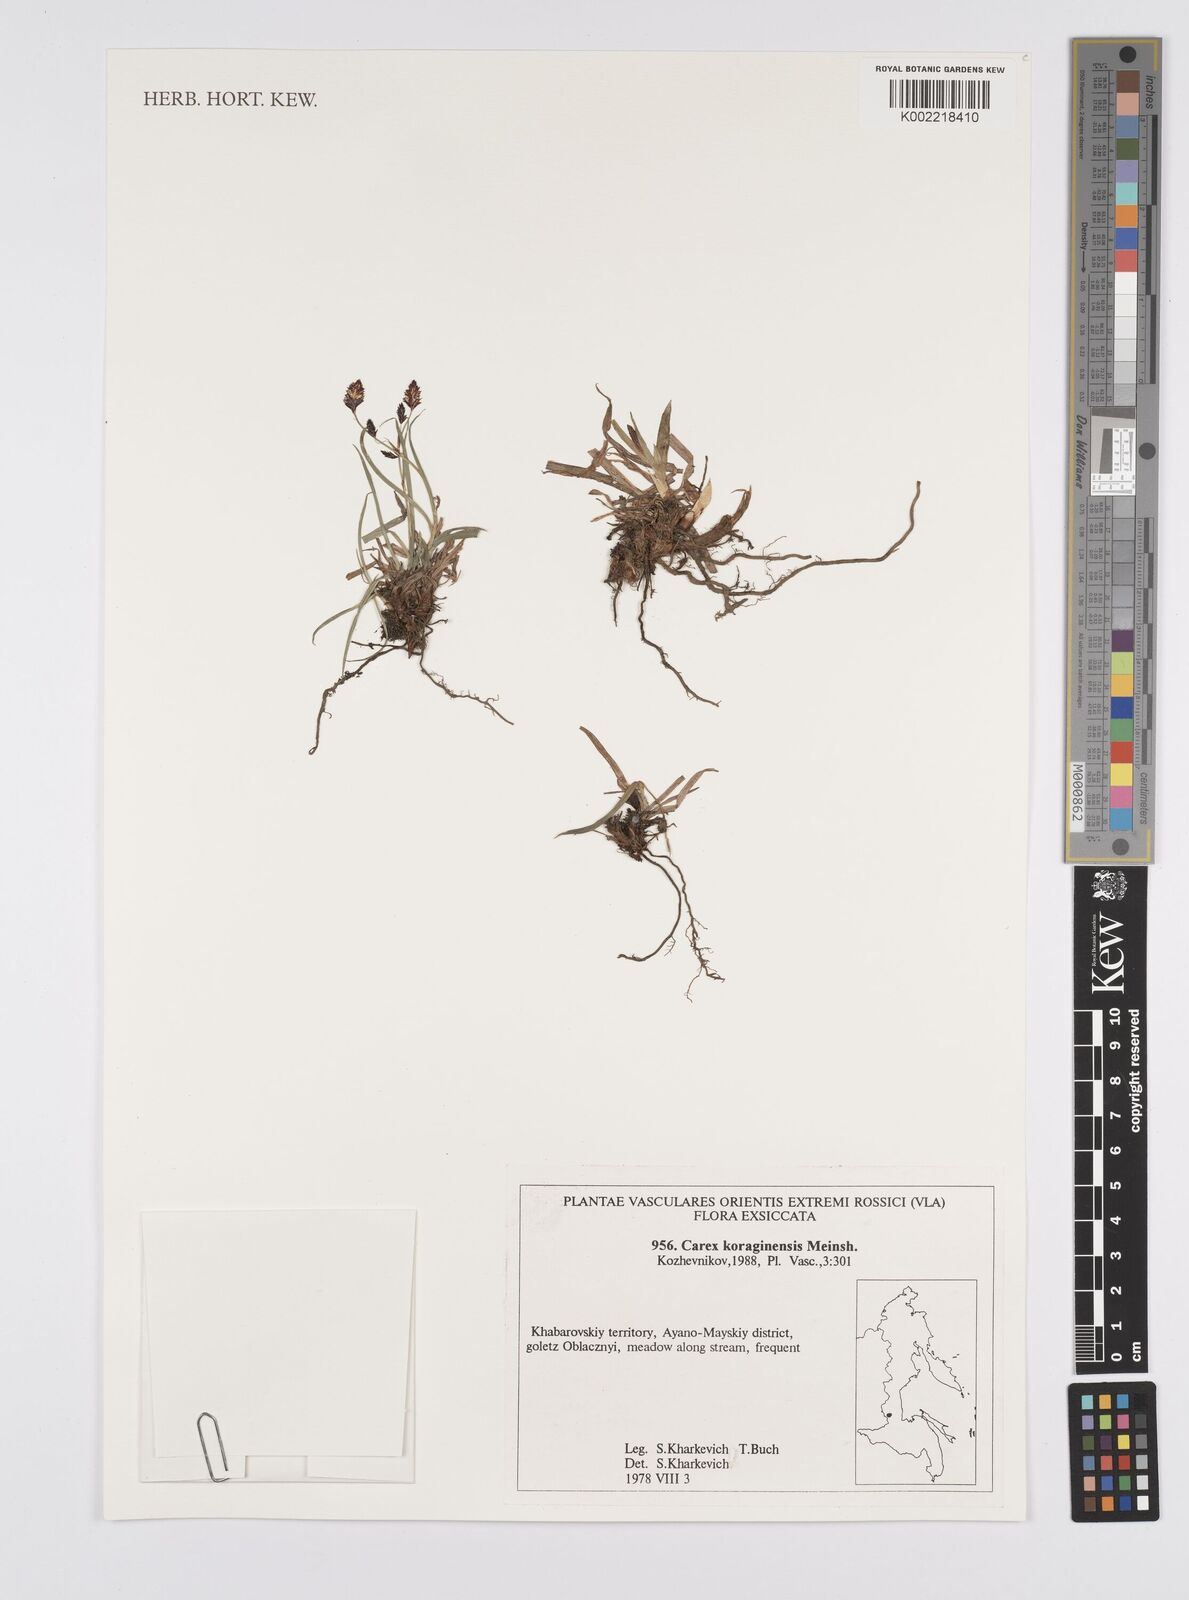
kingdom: Plantae
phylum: Tracheophyta
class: Liliopsida
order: Poales
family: Cyperaceae
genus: Carex
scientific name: Carex scita
